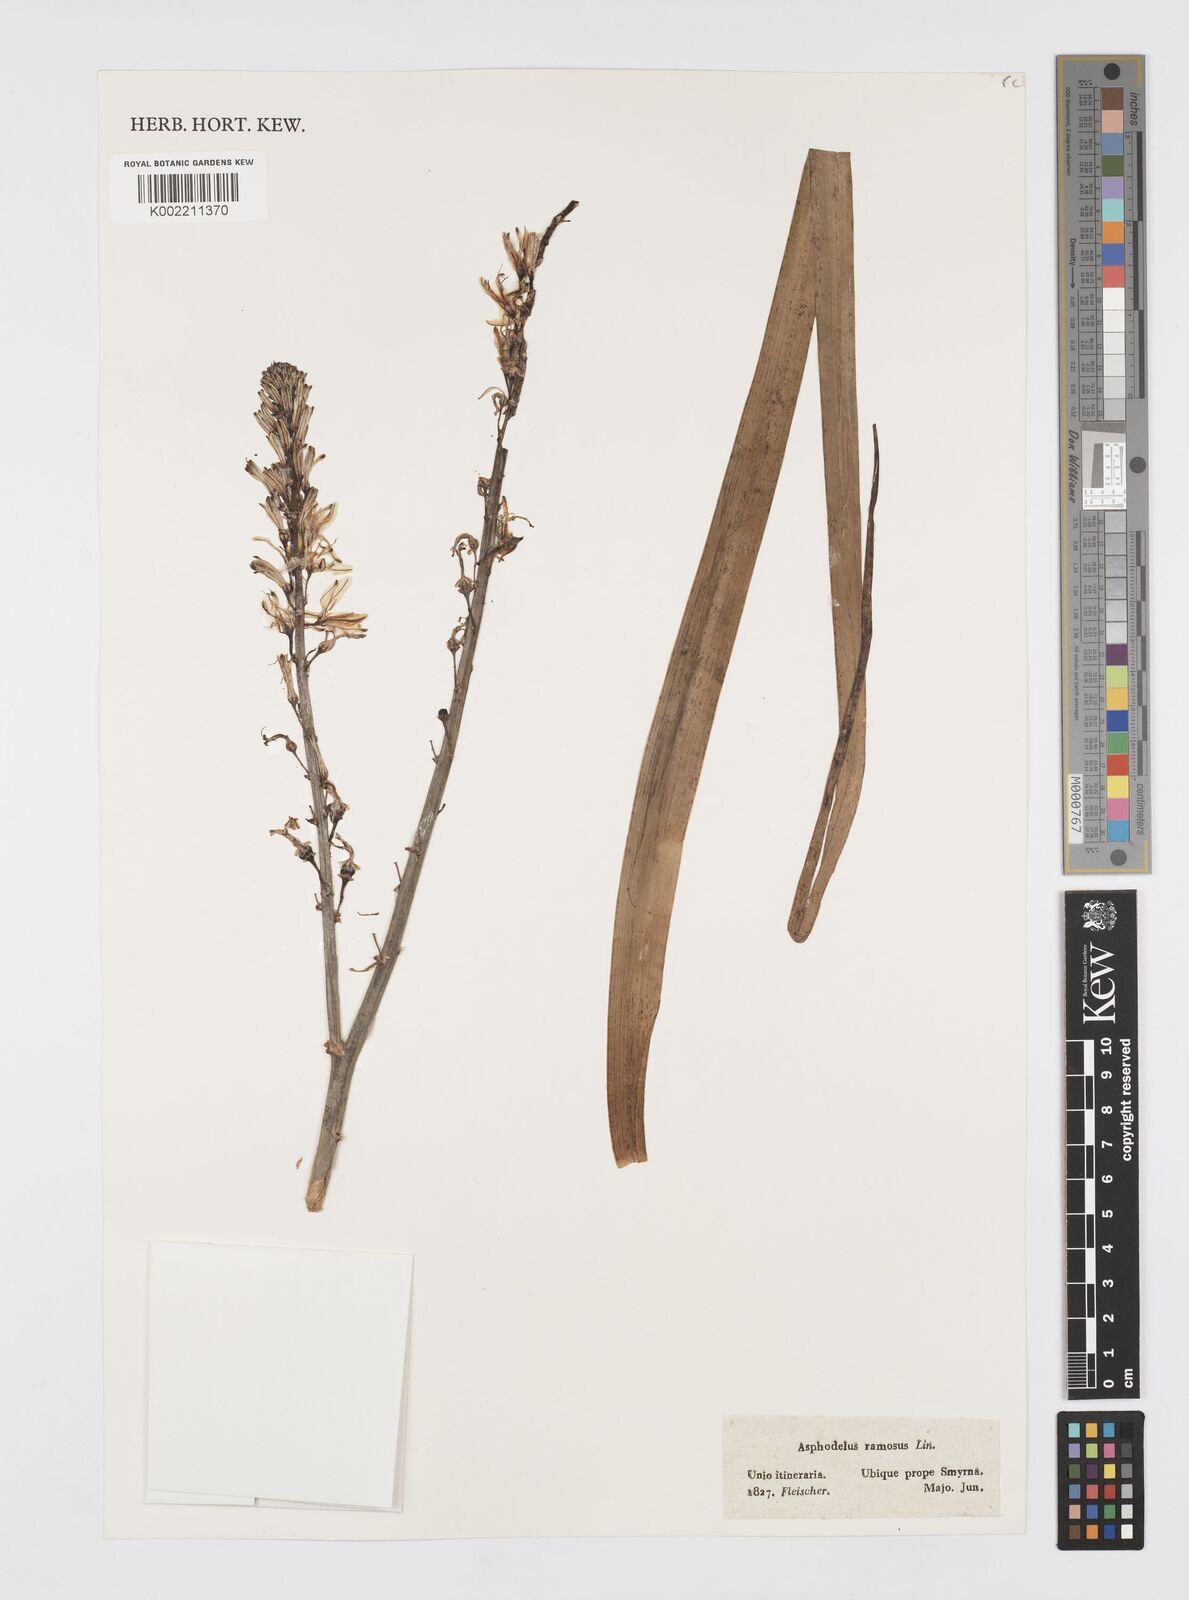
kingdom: Plantae
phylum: Tracheophyta
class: Liliopsida
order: Asparagales
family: Asphodelaceae
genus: Asphodelus
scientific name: Asphodelus ramosus
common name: Silverrod
